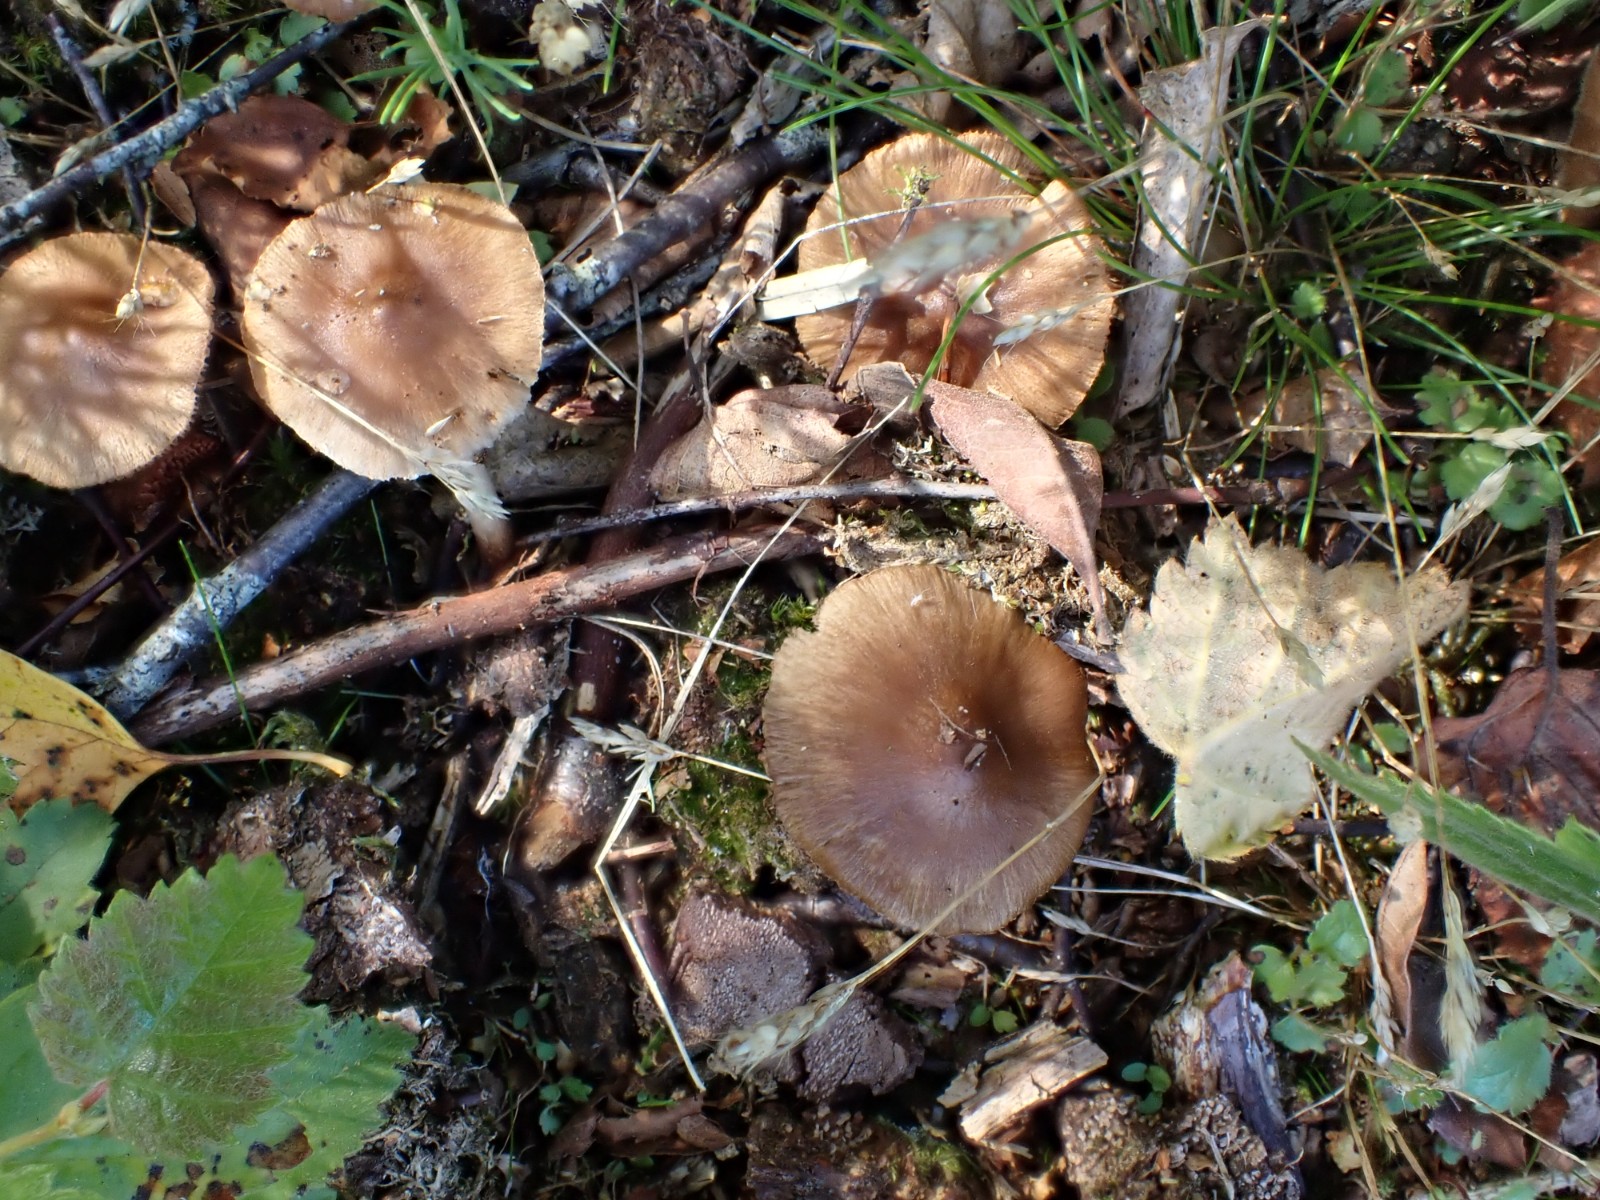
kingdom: Fungi
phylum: Basidiomycota
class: Agaricomycetes
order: Agaricales
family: Inocybaceae
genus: Inocybe
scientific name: Inocybe mixtilis
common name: randknoldet trævlhat
